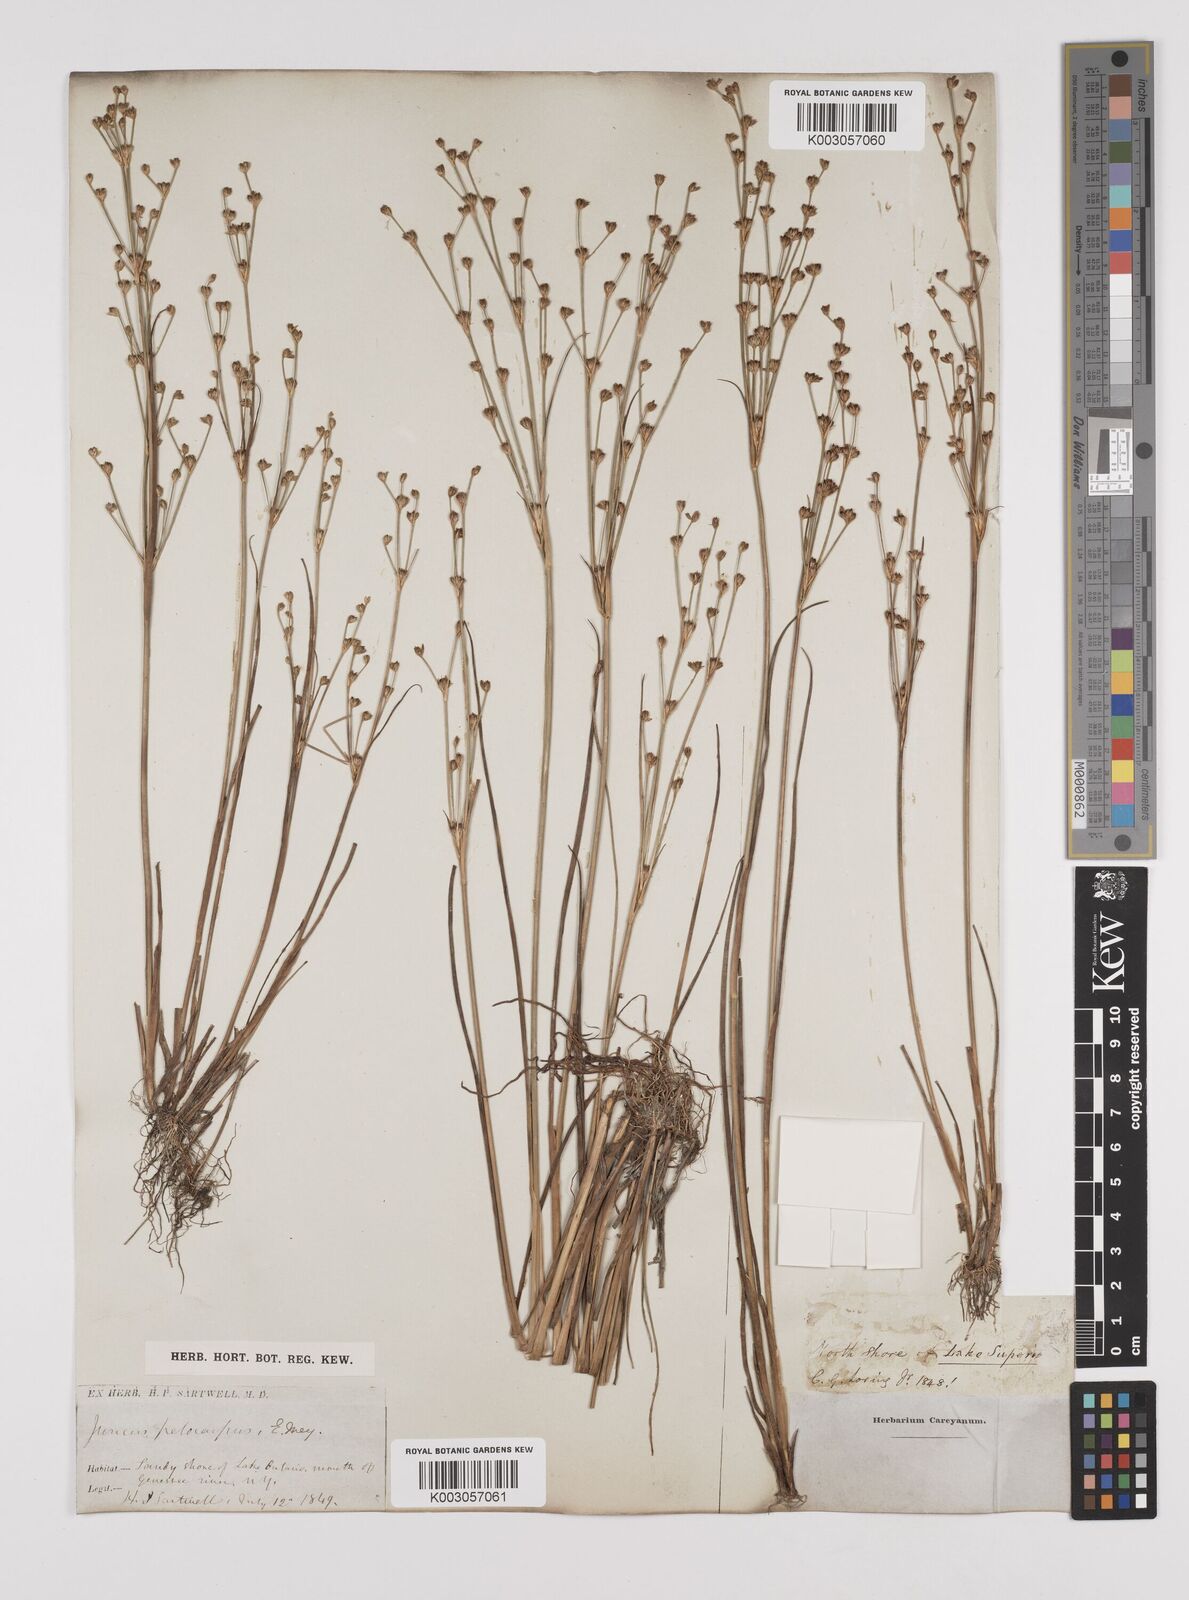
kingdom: Plantae
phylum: Tracheophyta
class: Liliopsida
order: Poales
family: Juncaceae
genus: Juncus
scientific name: Juncus pelocarpus
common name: Brown-fruited rush
